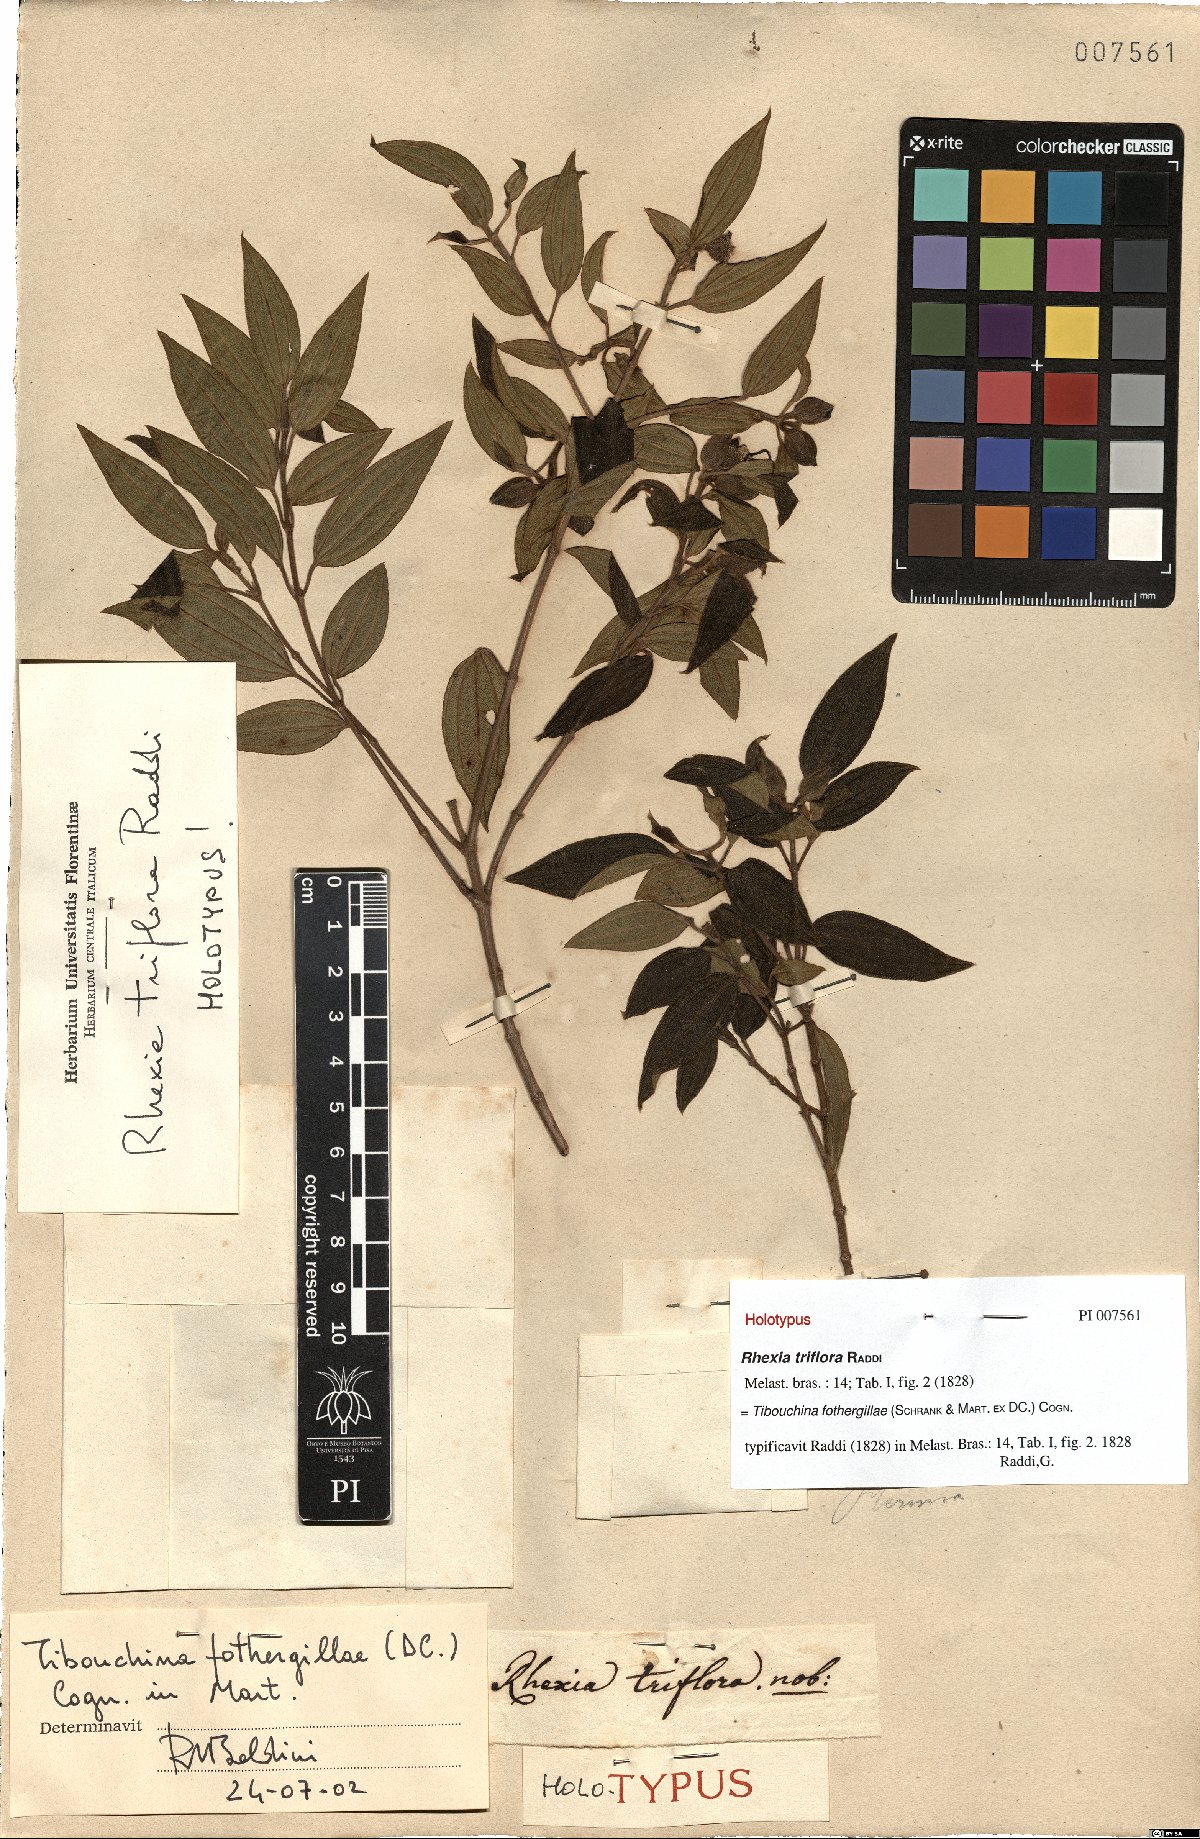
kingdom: Plantae
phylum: Tracheophyta
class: Magnoliopsida
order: Myrtales
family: Melastomataceae
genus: Pleroma
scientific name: Pleroma fothergillae
